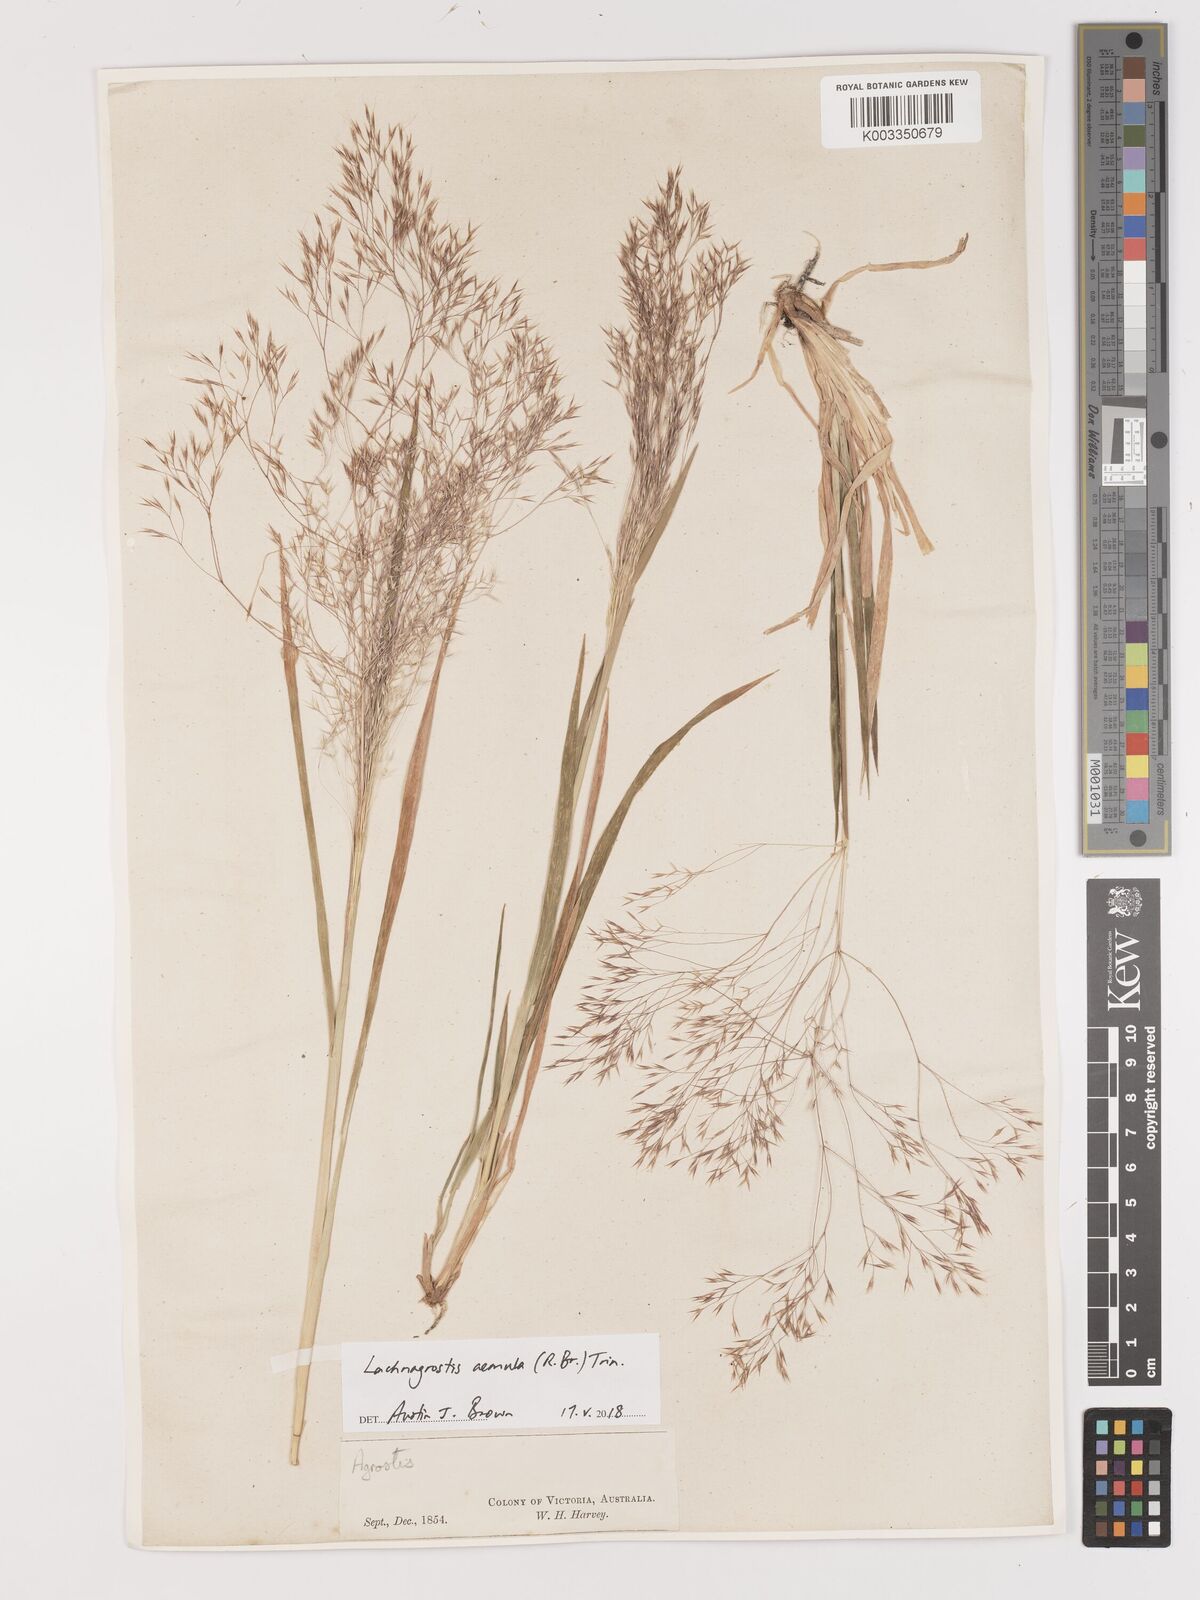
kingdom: Plantae
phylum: Tracheophyta
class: Liliopsida
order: Poales
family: Poaceae
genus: Lachnagrostis
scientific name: Lachnagrostis aemula
